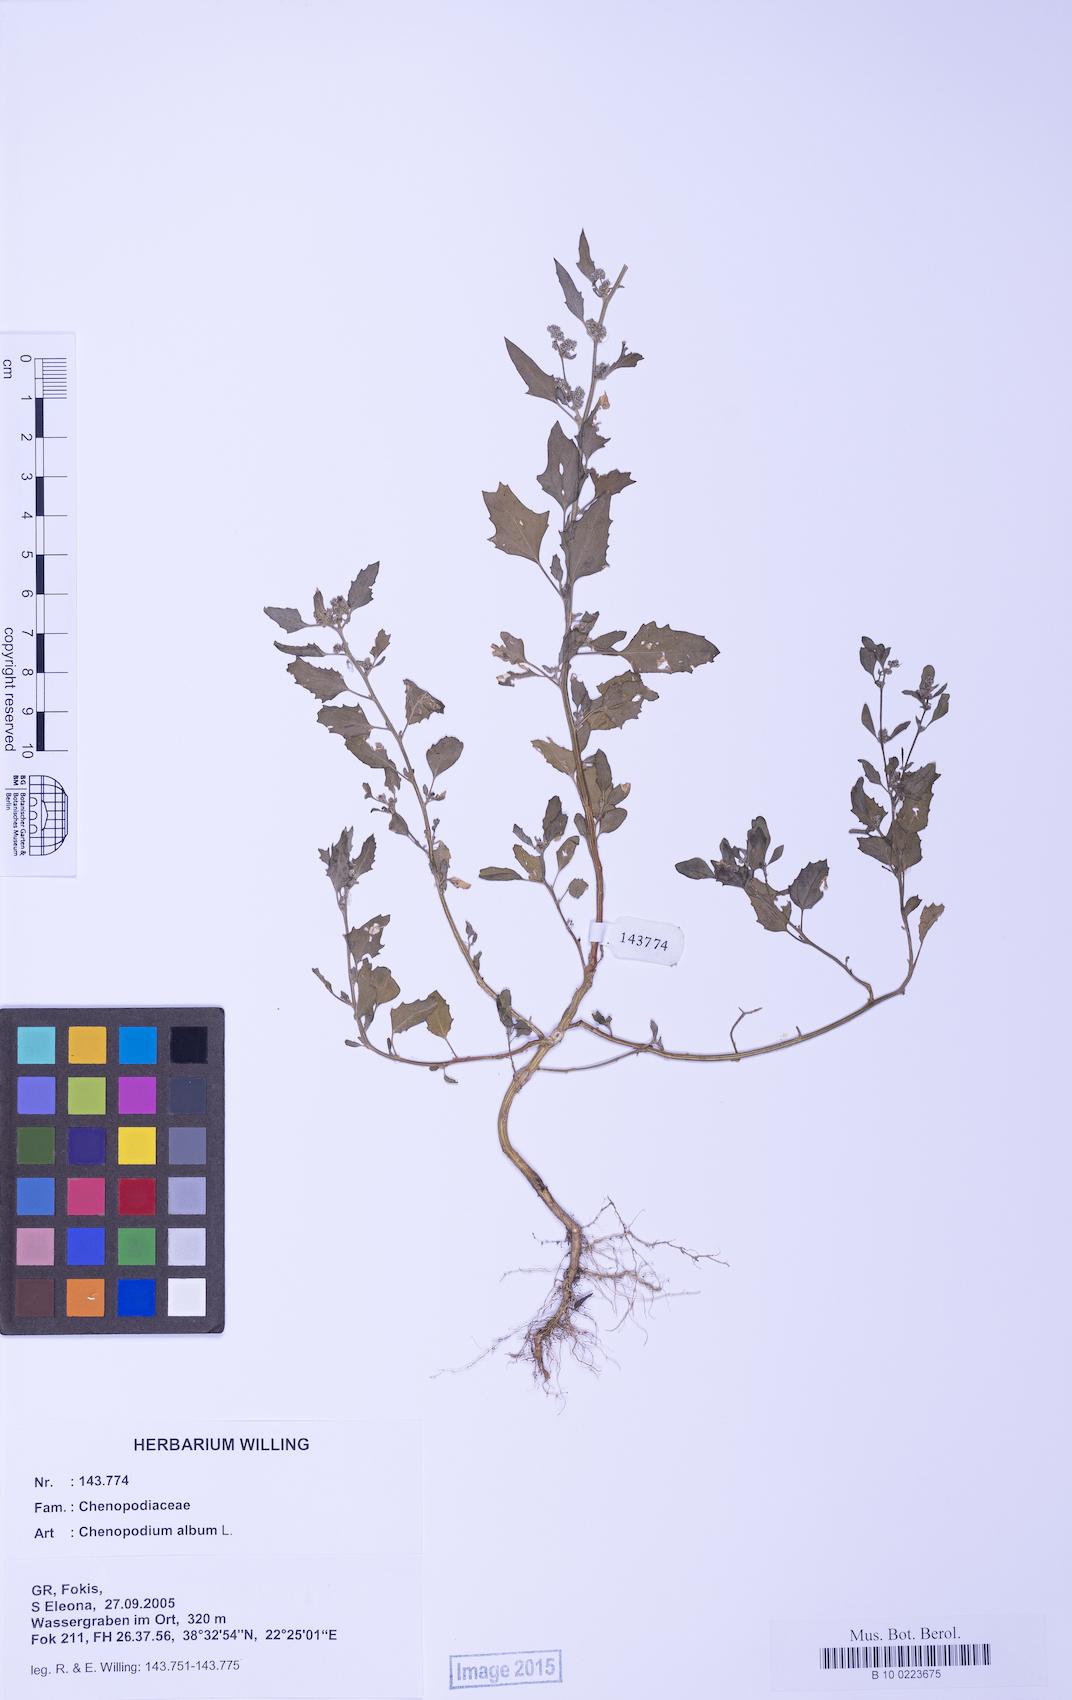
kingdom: Plantae
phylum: Tracheophyta
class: Magnoliopsida
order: Caryophyllales
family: Amaranthaceae
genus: Chenopodium
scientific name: Chenopodium album
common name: Fat-hen
